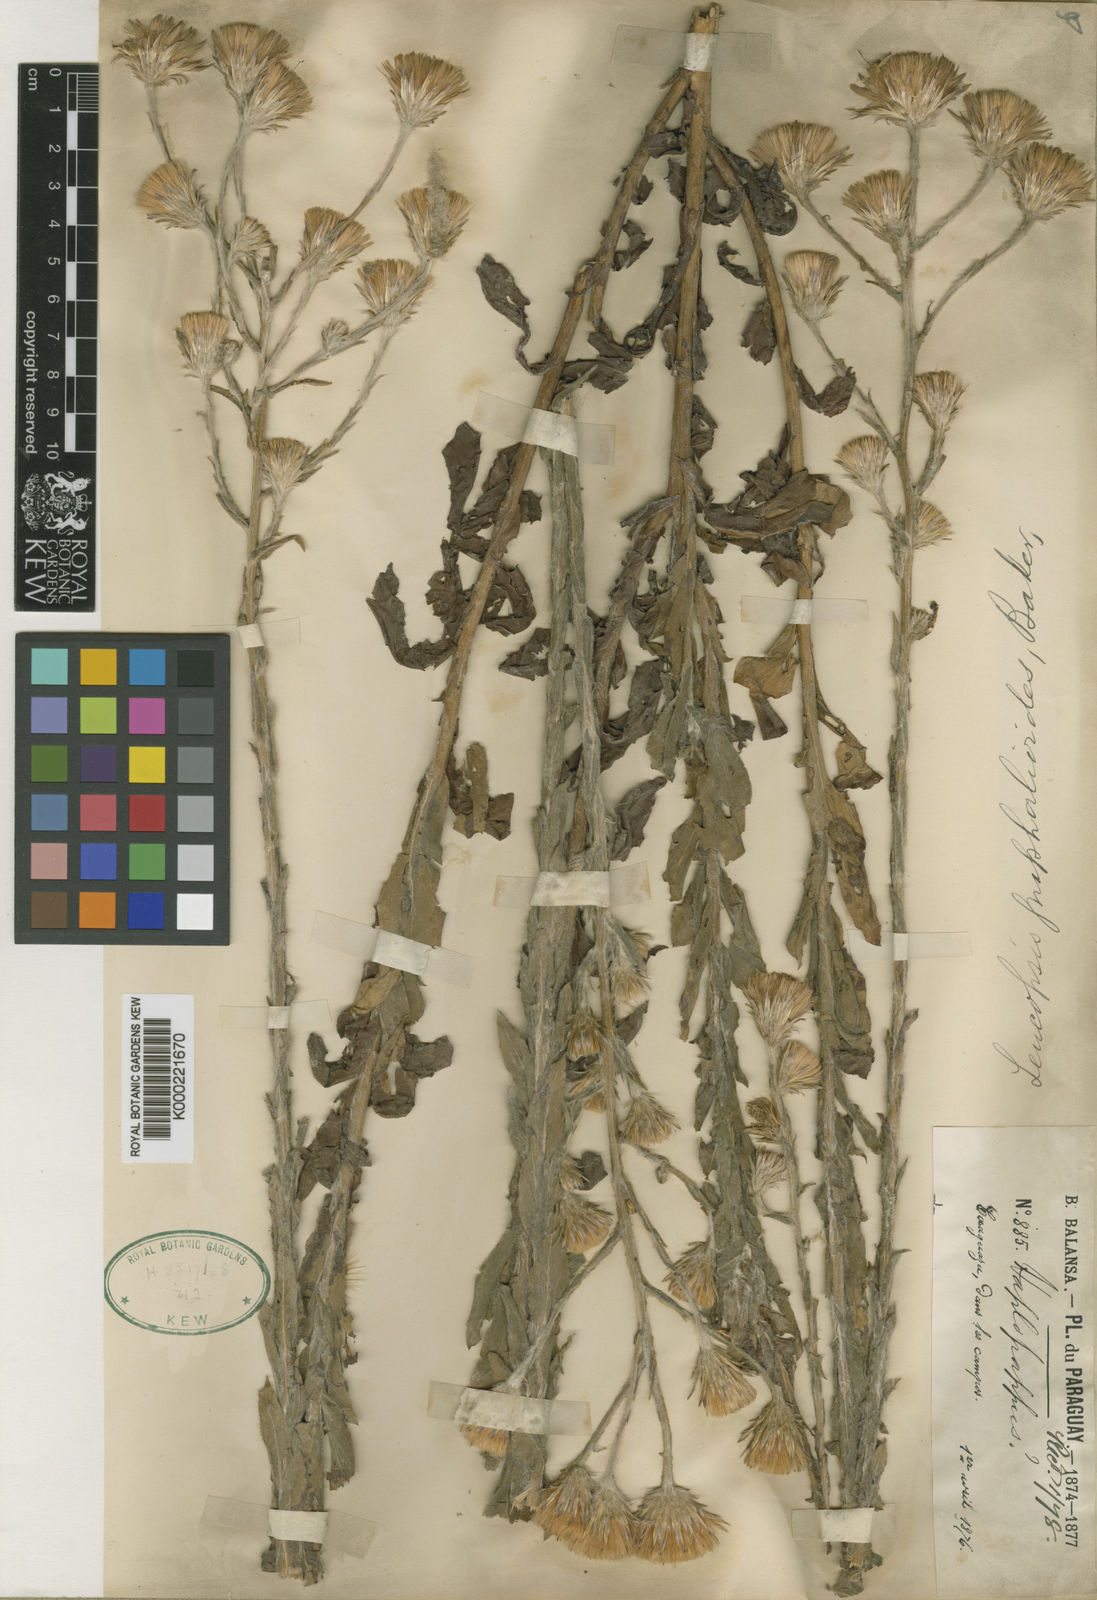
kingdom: Plantae
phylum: Tracheophyta
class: Magnoliopsida
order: Asterales
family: Asteraceae
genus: Noticastrum
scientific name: Noticastrum gnaphalioides
